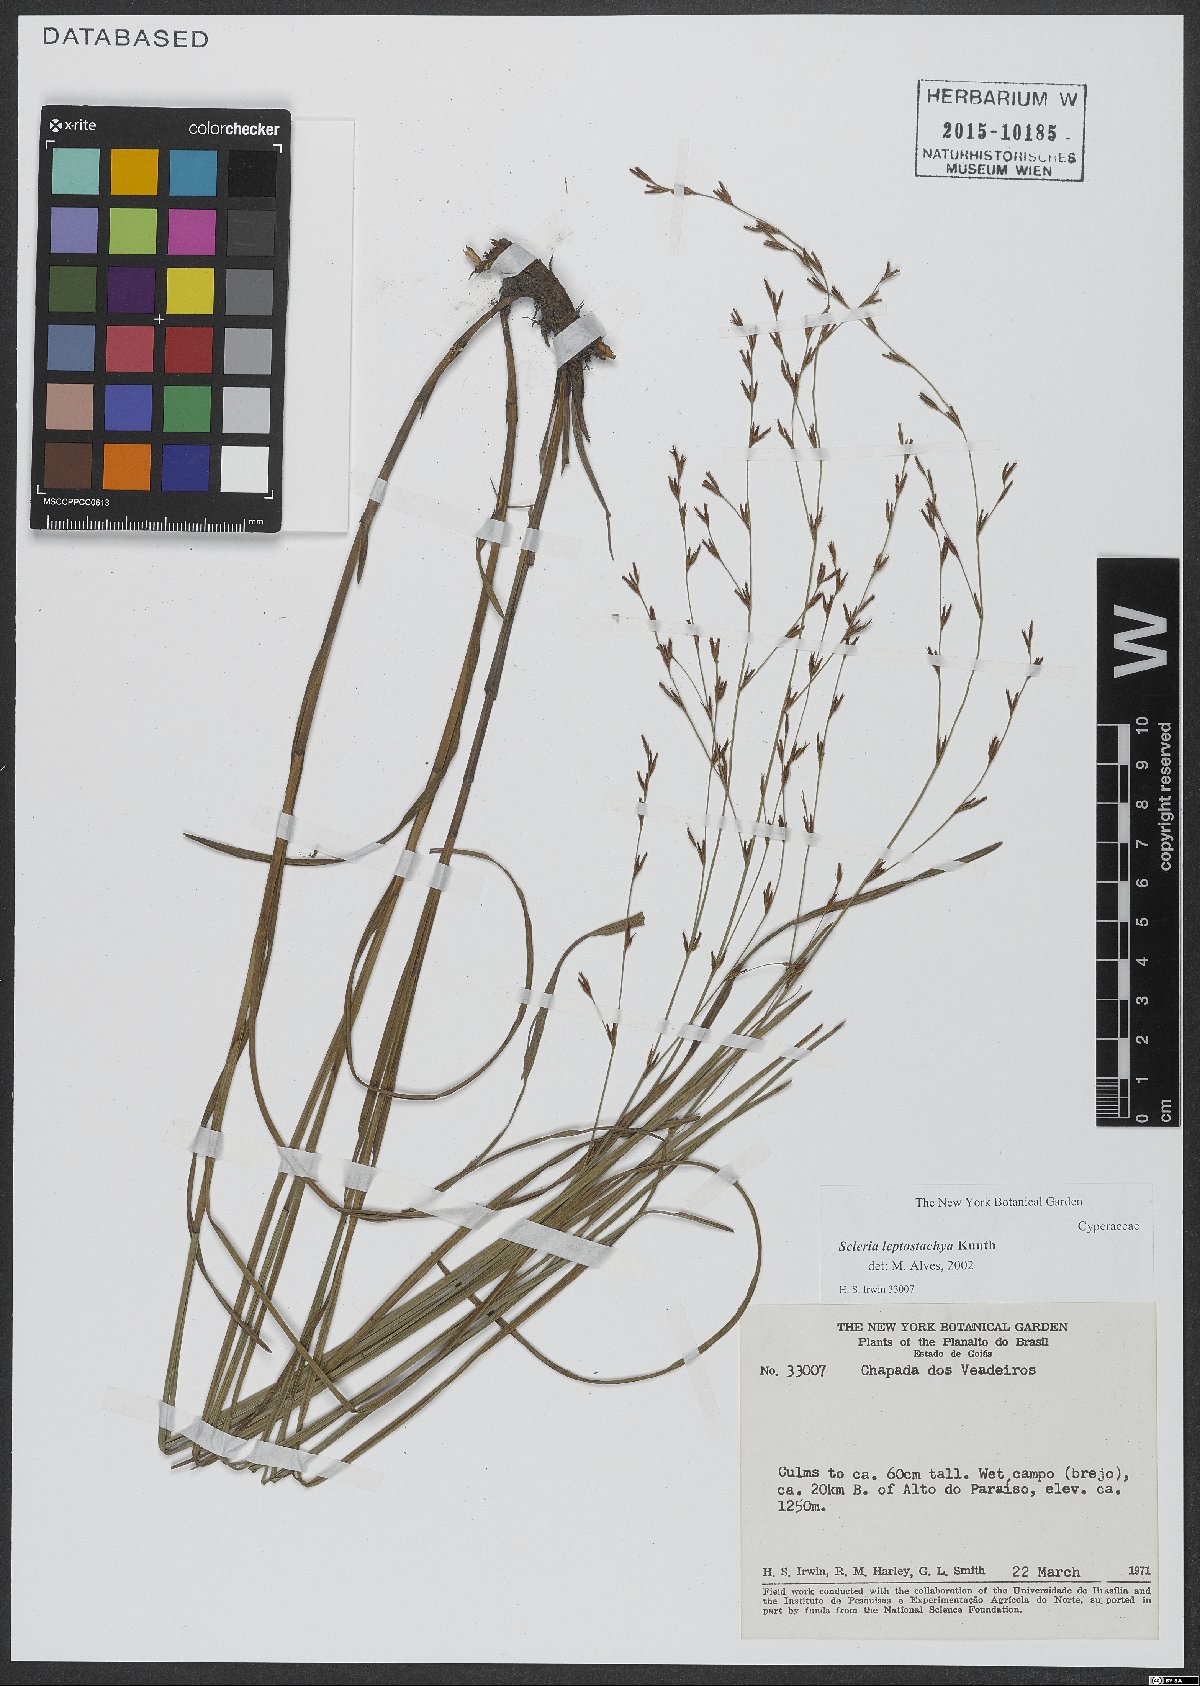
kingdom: Plantae
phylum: Tracheophyta
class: Liliopsida
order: Poales
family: Cyperaceae
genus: Scleria
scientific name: Scleria leptostachya
